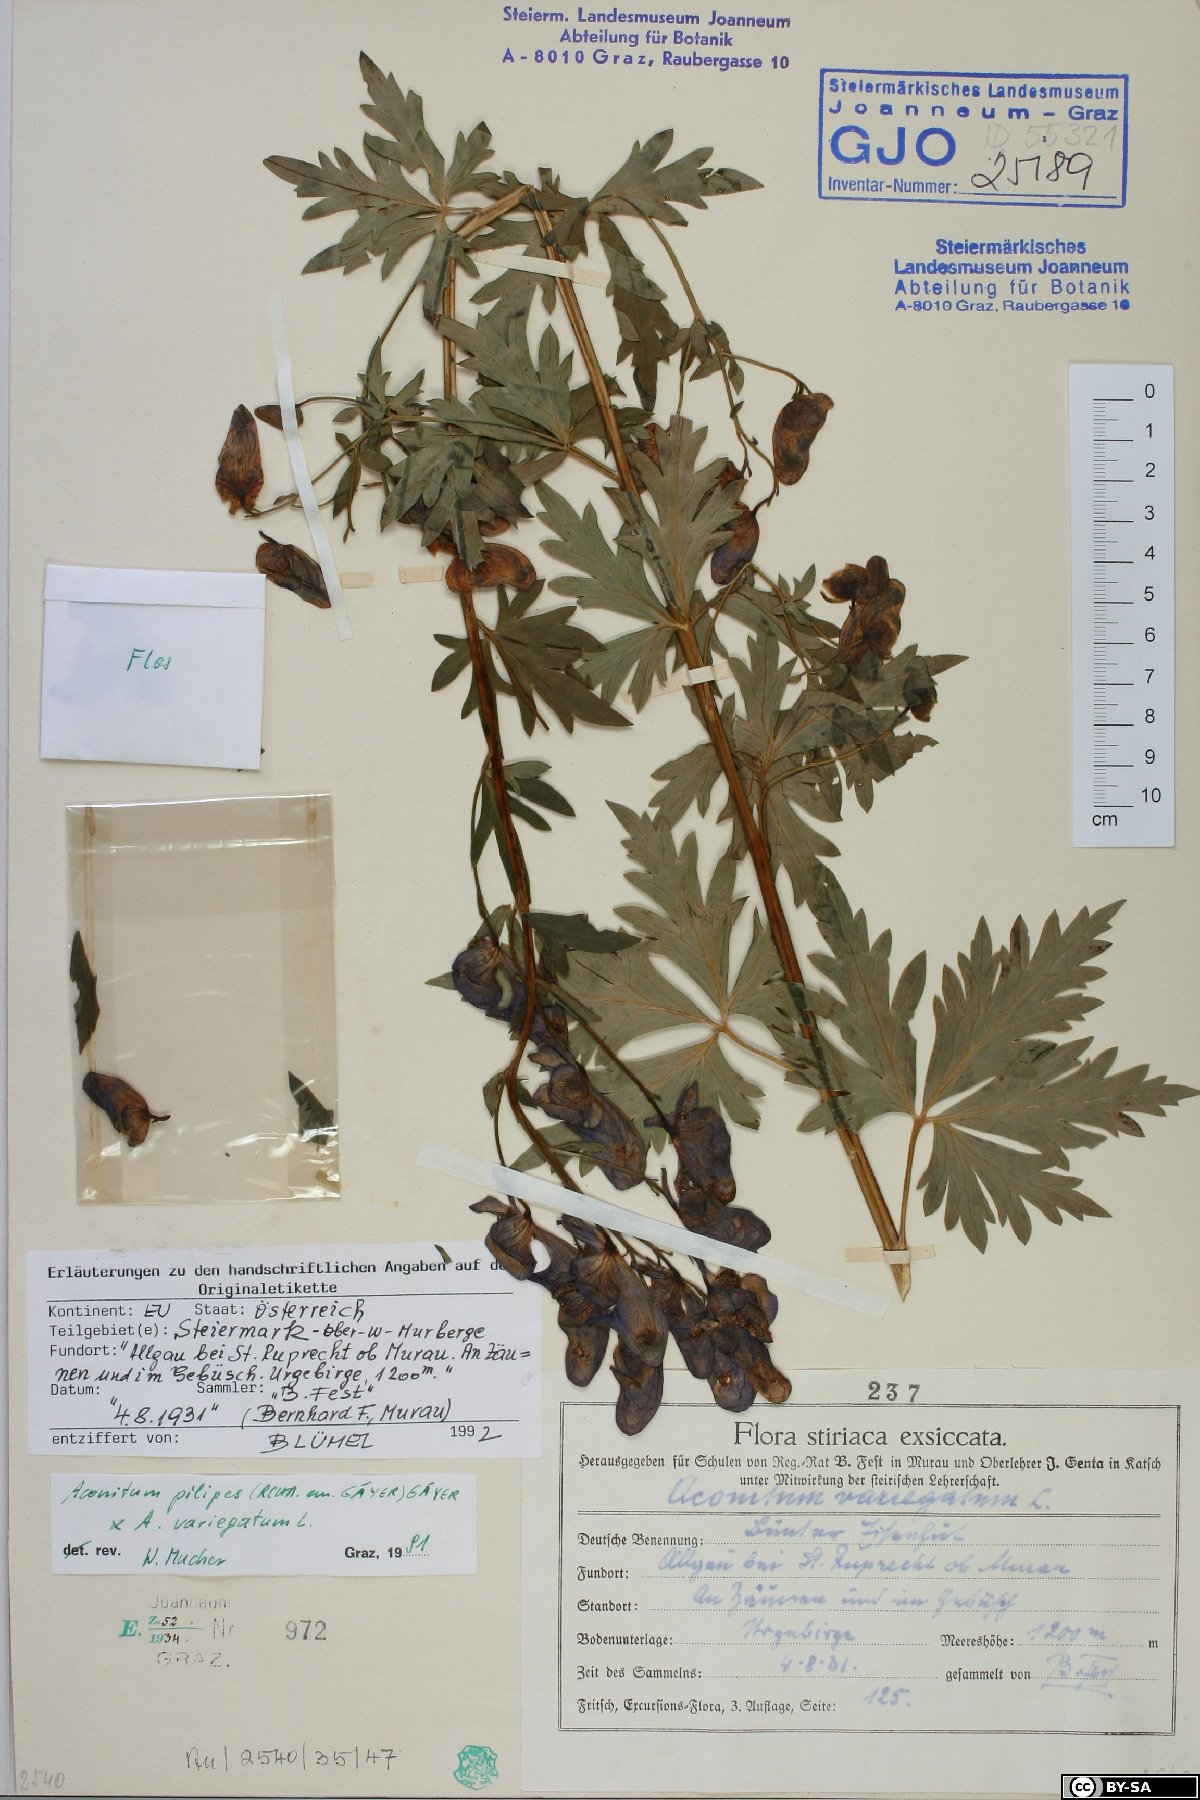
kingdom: Plantae
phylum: Tracheophyta
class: Magnoliopsida
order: Ranunculales
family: Ranunculaceae
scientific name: Ranunculaceae
